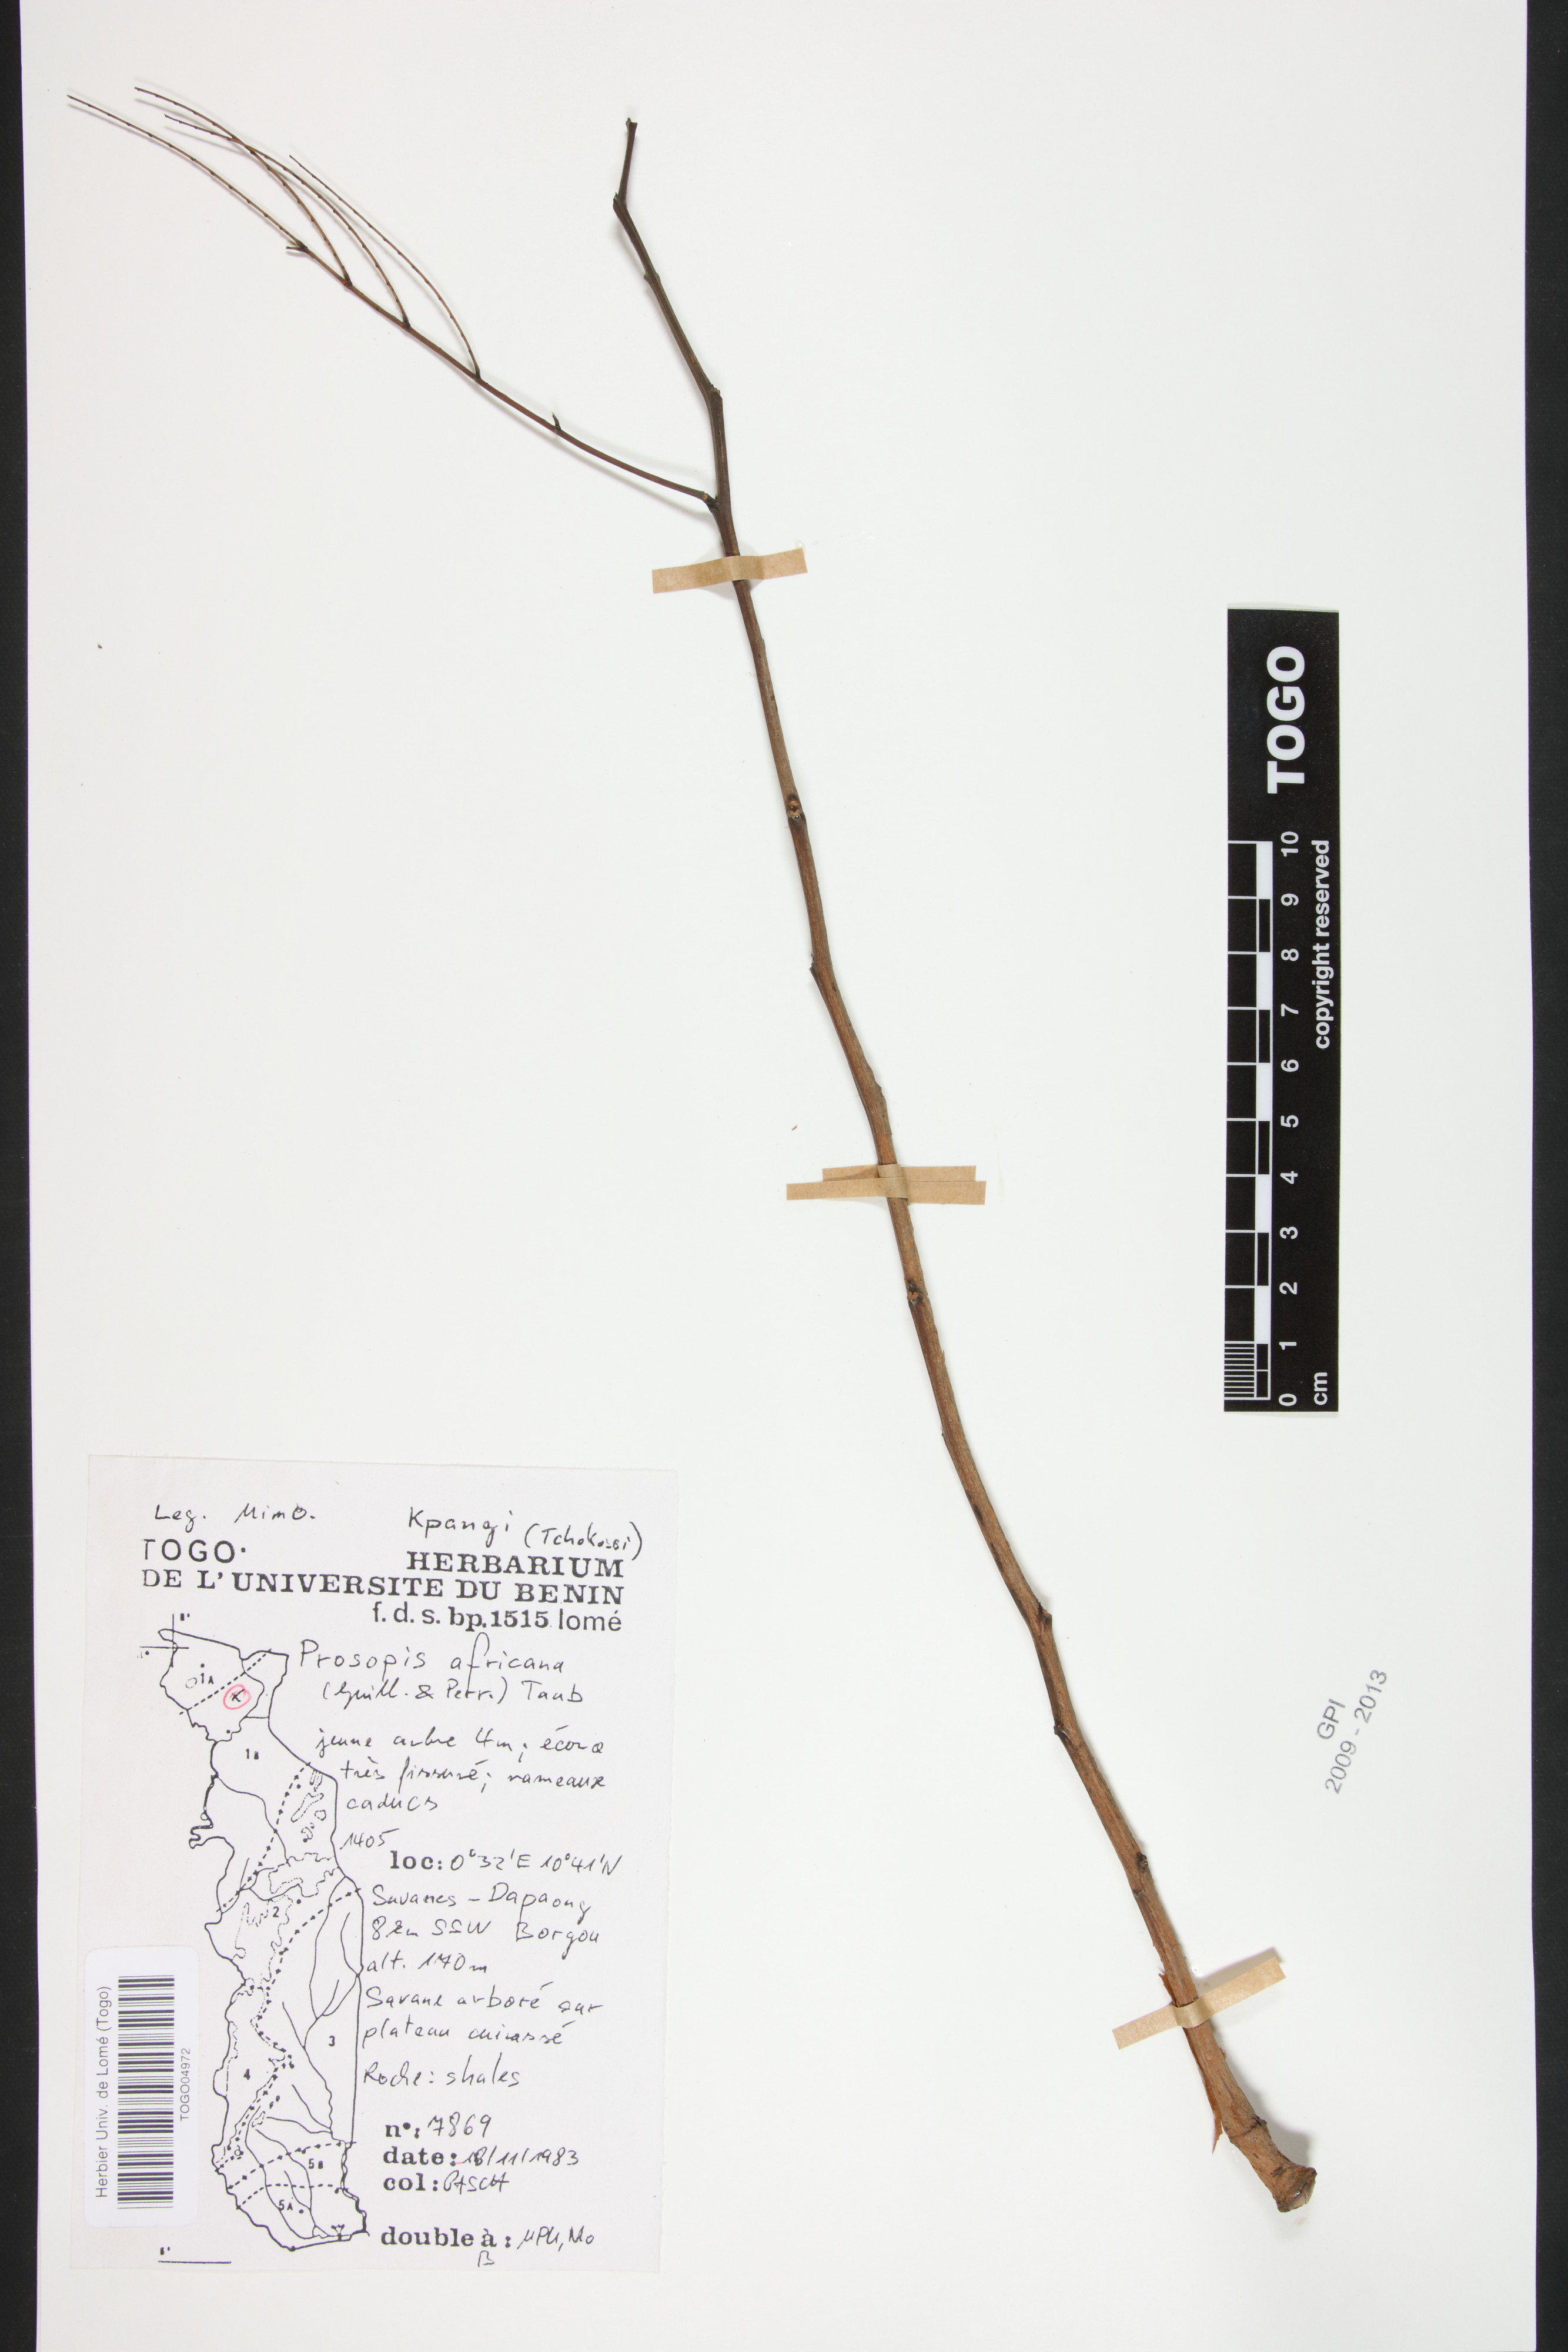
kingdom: Plantae
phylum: Tracheophyta
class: Magnoliopsida
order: Fabales
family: Fabaceae
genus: Prosopis
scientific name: Prosopis africana
